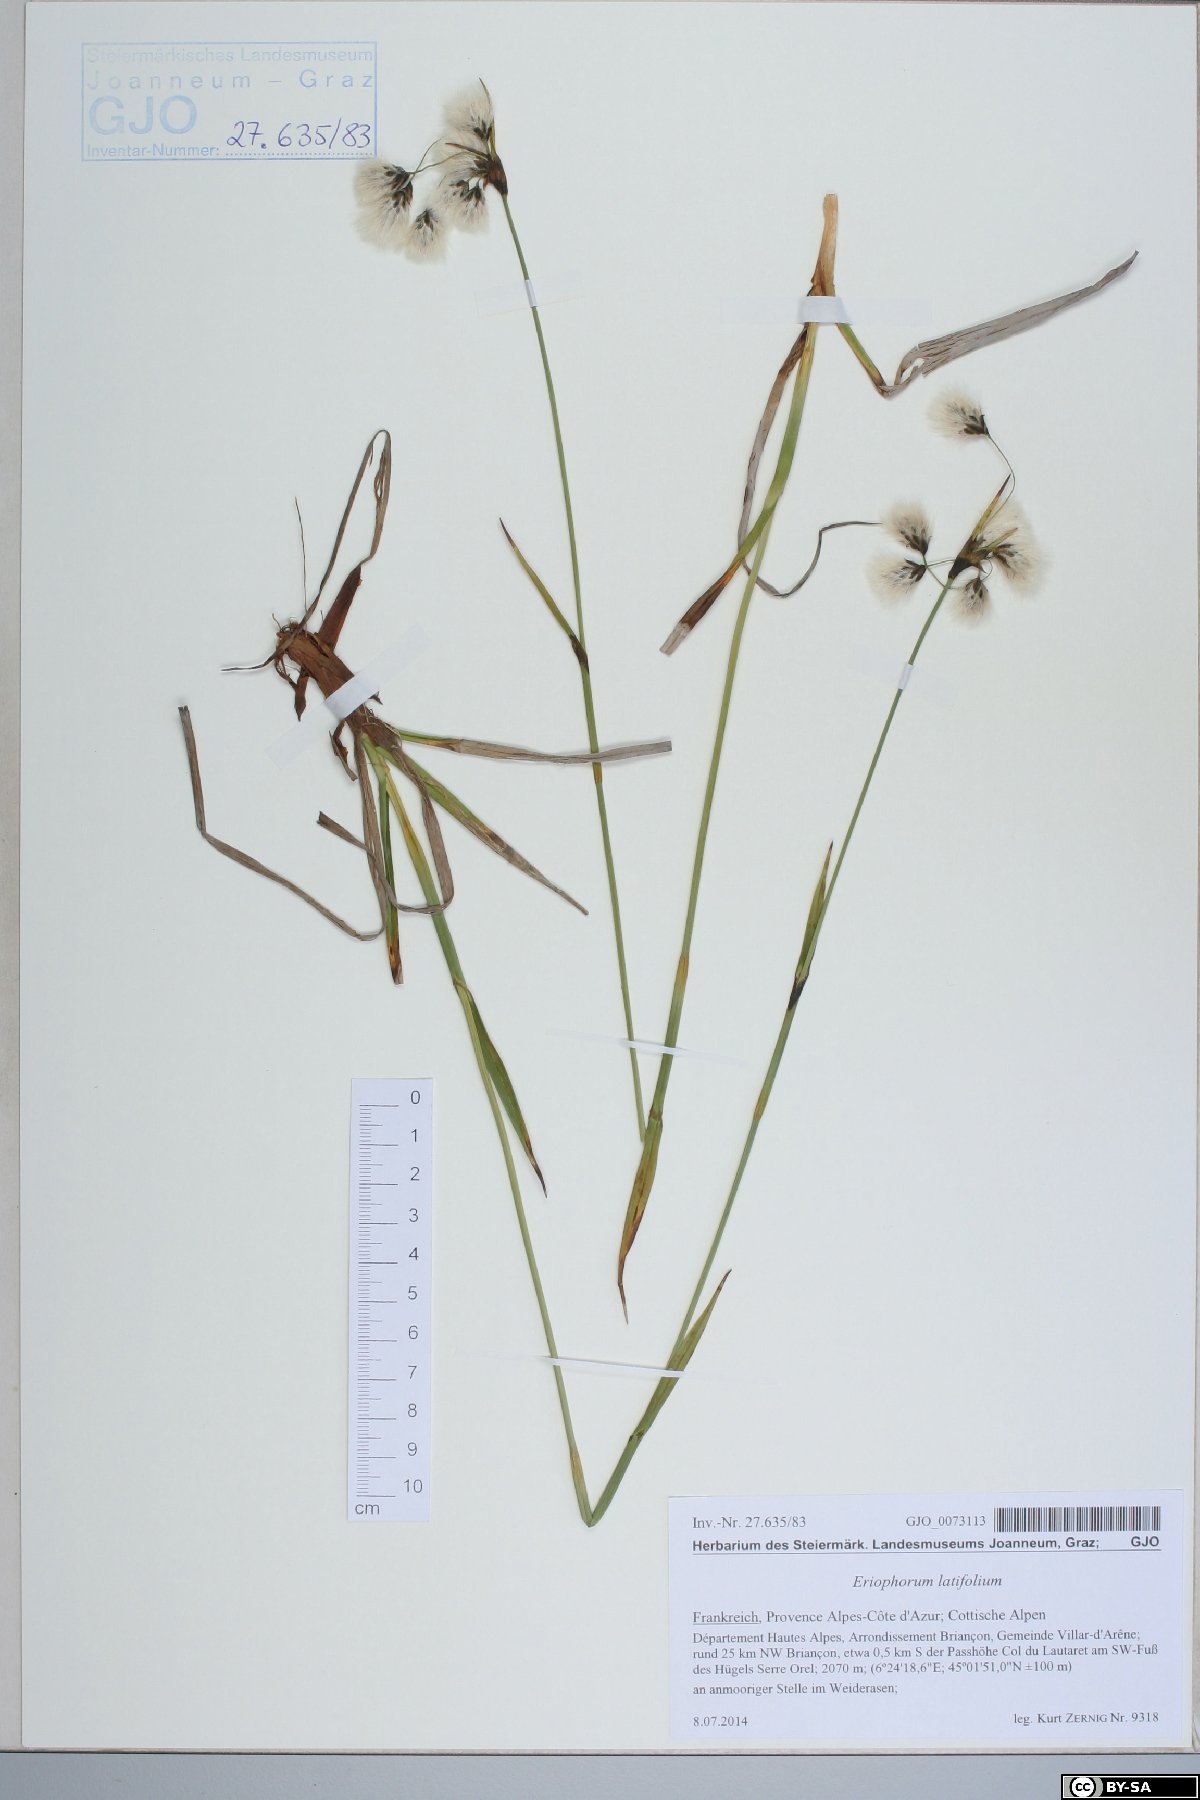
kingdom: Plantae
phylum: Tracheophyta
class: Liliopsida
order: Poales
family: Cyperaceae
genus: Eriophorum
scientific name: Eriophorum latifolium
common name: Broad-leaved cottongrass
